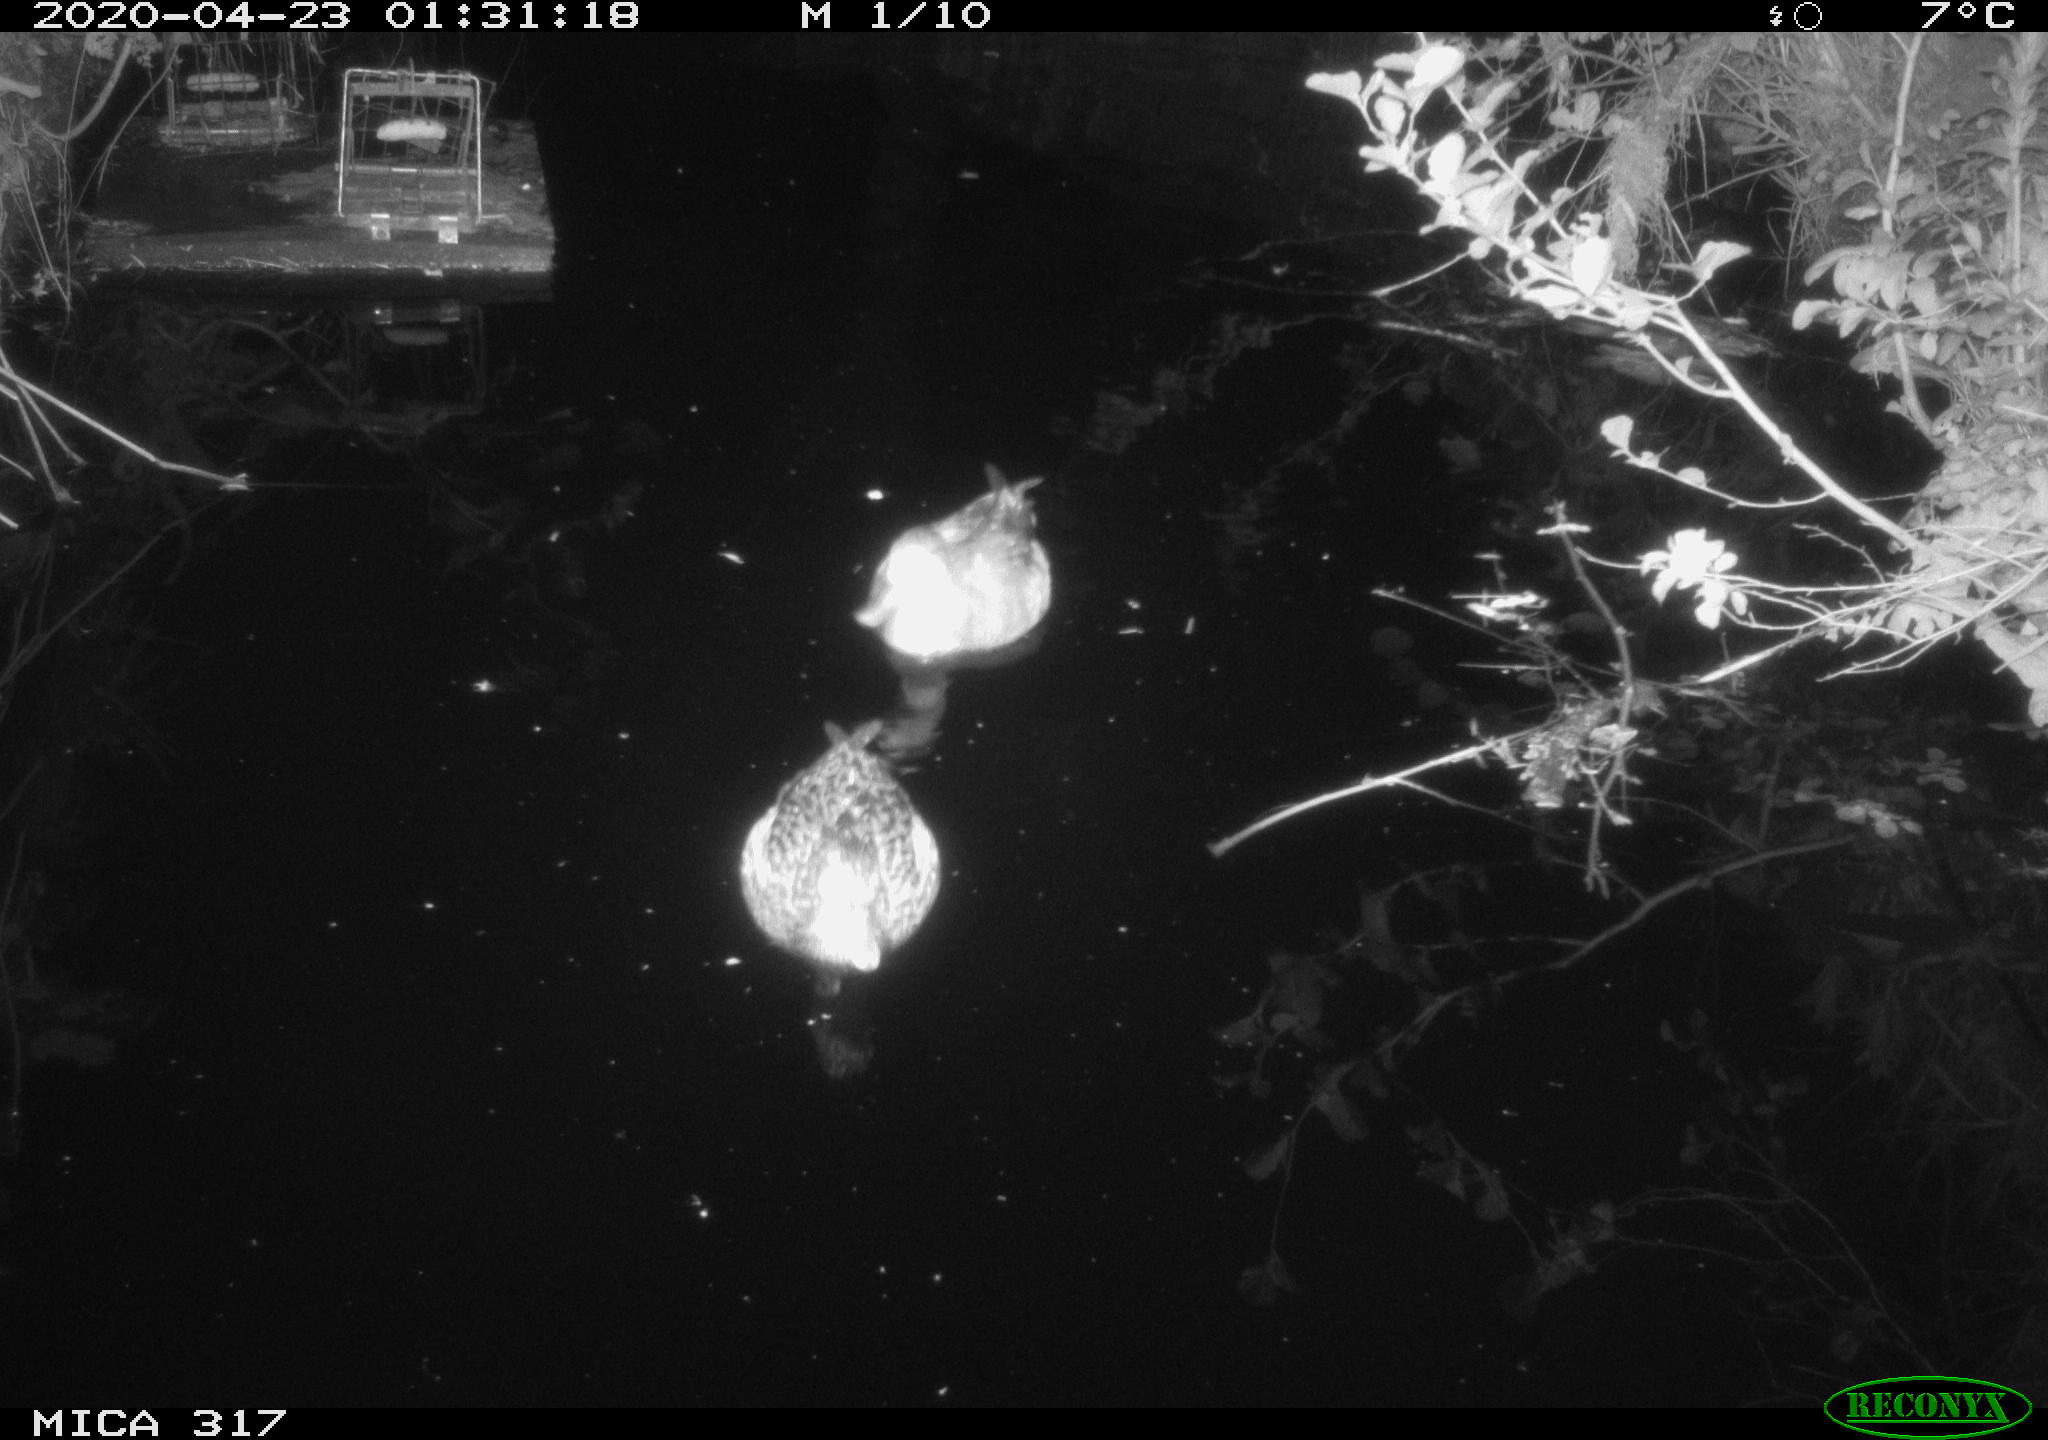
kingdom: Animalia
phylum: Chordata
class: Aves
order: Anseriformes
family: Anatidae
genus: Anas
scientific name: Anas platyrhynchos
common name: Mallard
